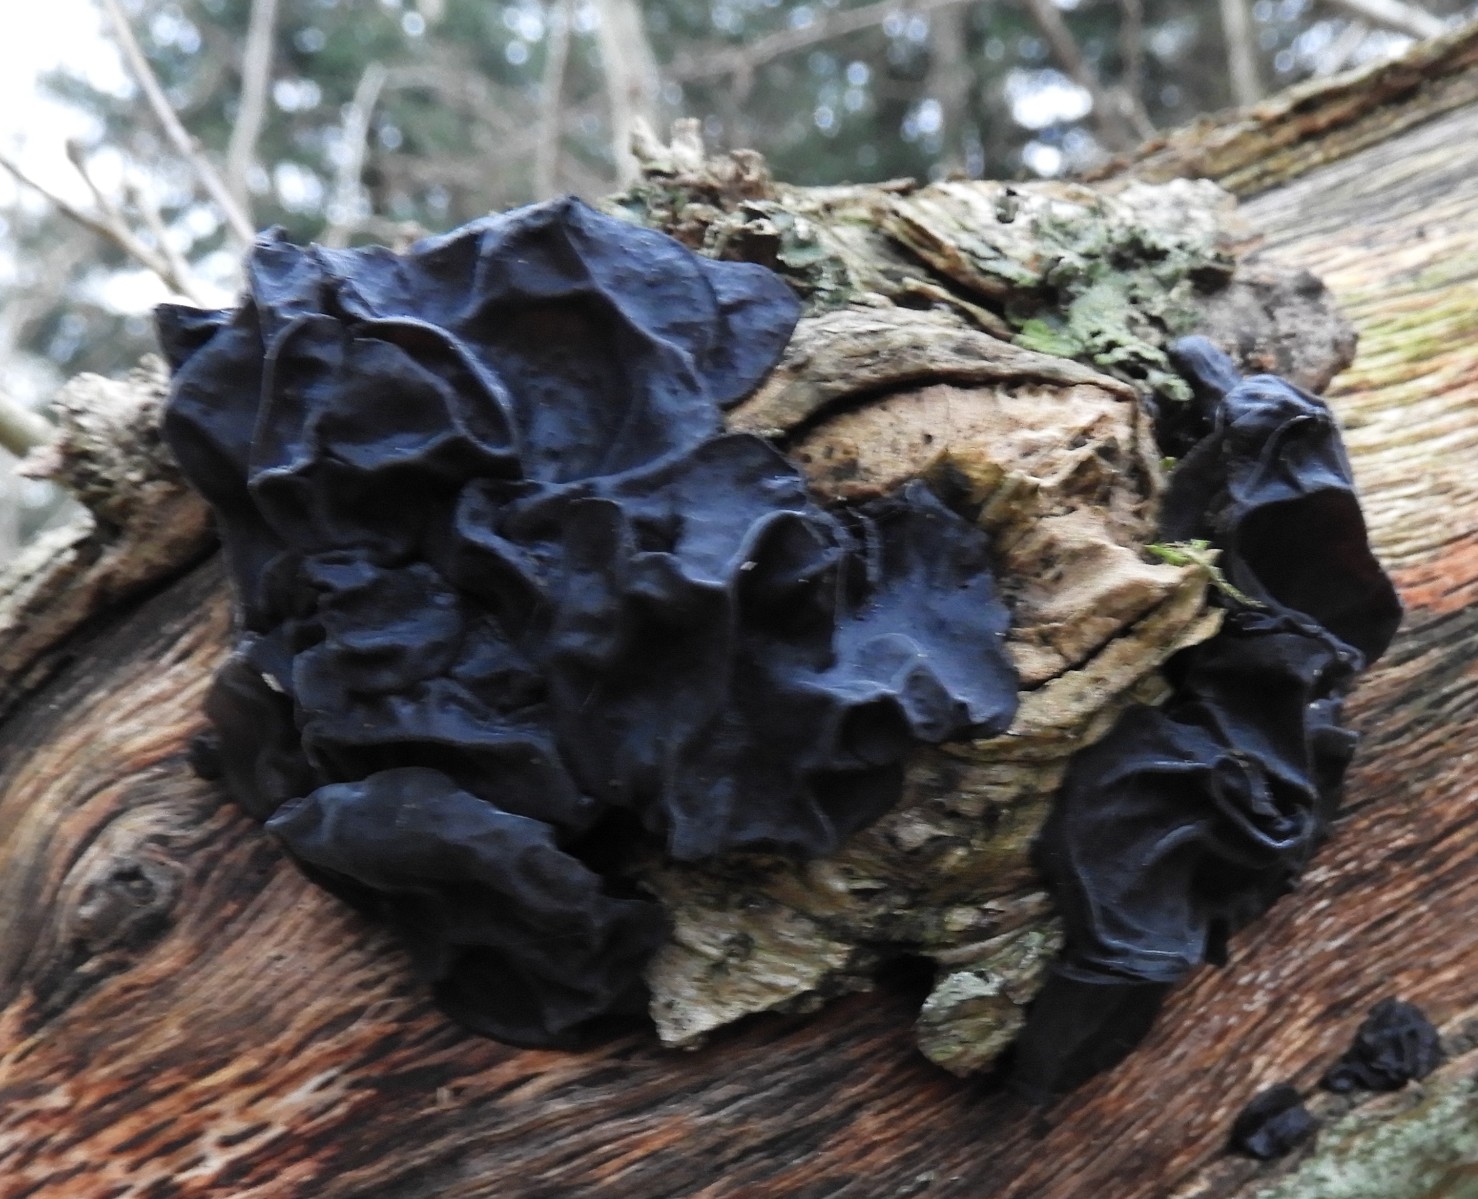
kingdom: Fungi
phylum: Basidiomycota
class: Agaricomycetes
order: Auriculariales
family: Auriculariaceae
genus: Exidia
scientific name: Exidia glandulosa
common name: ege-bævretop
